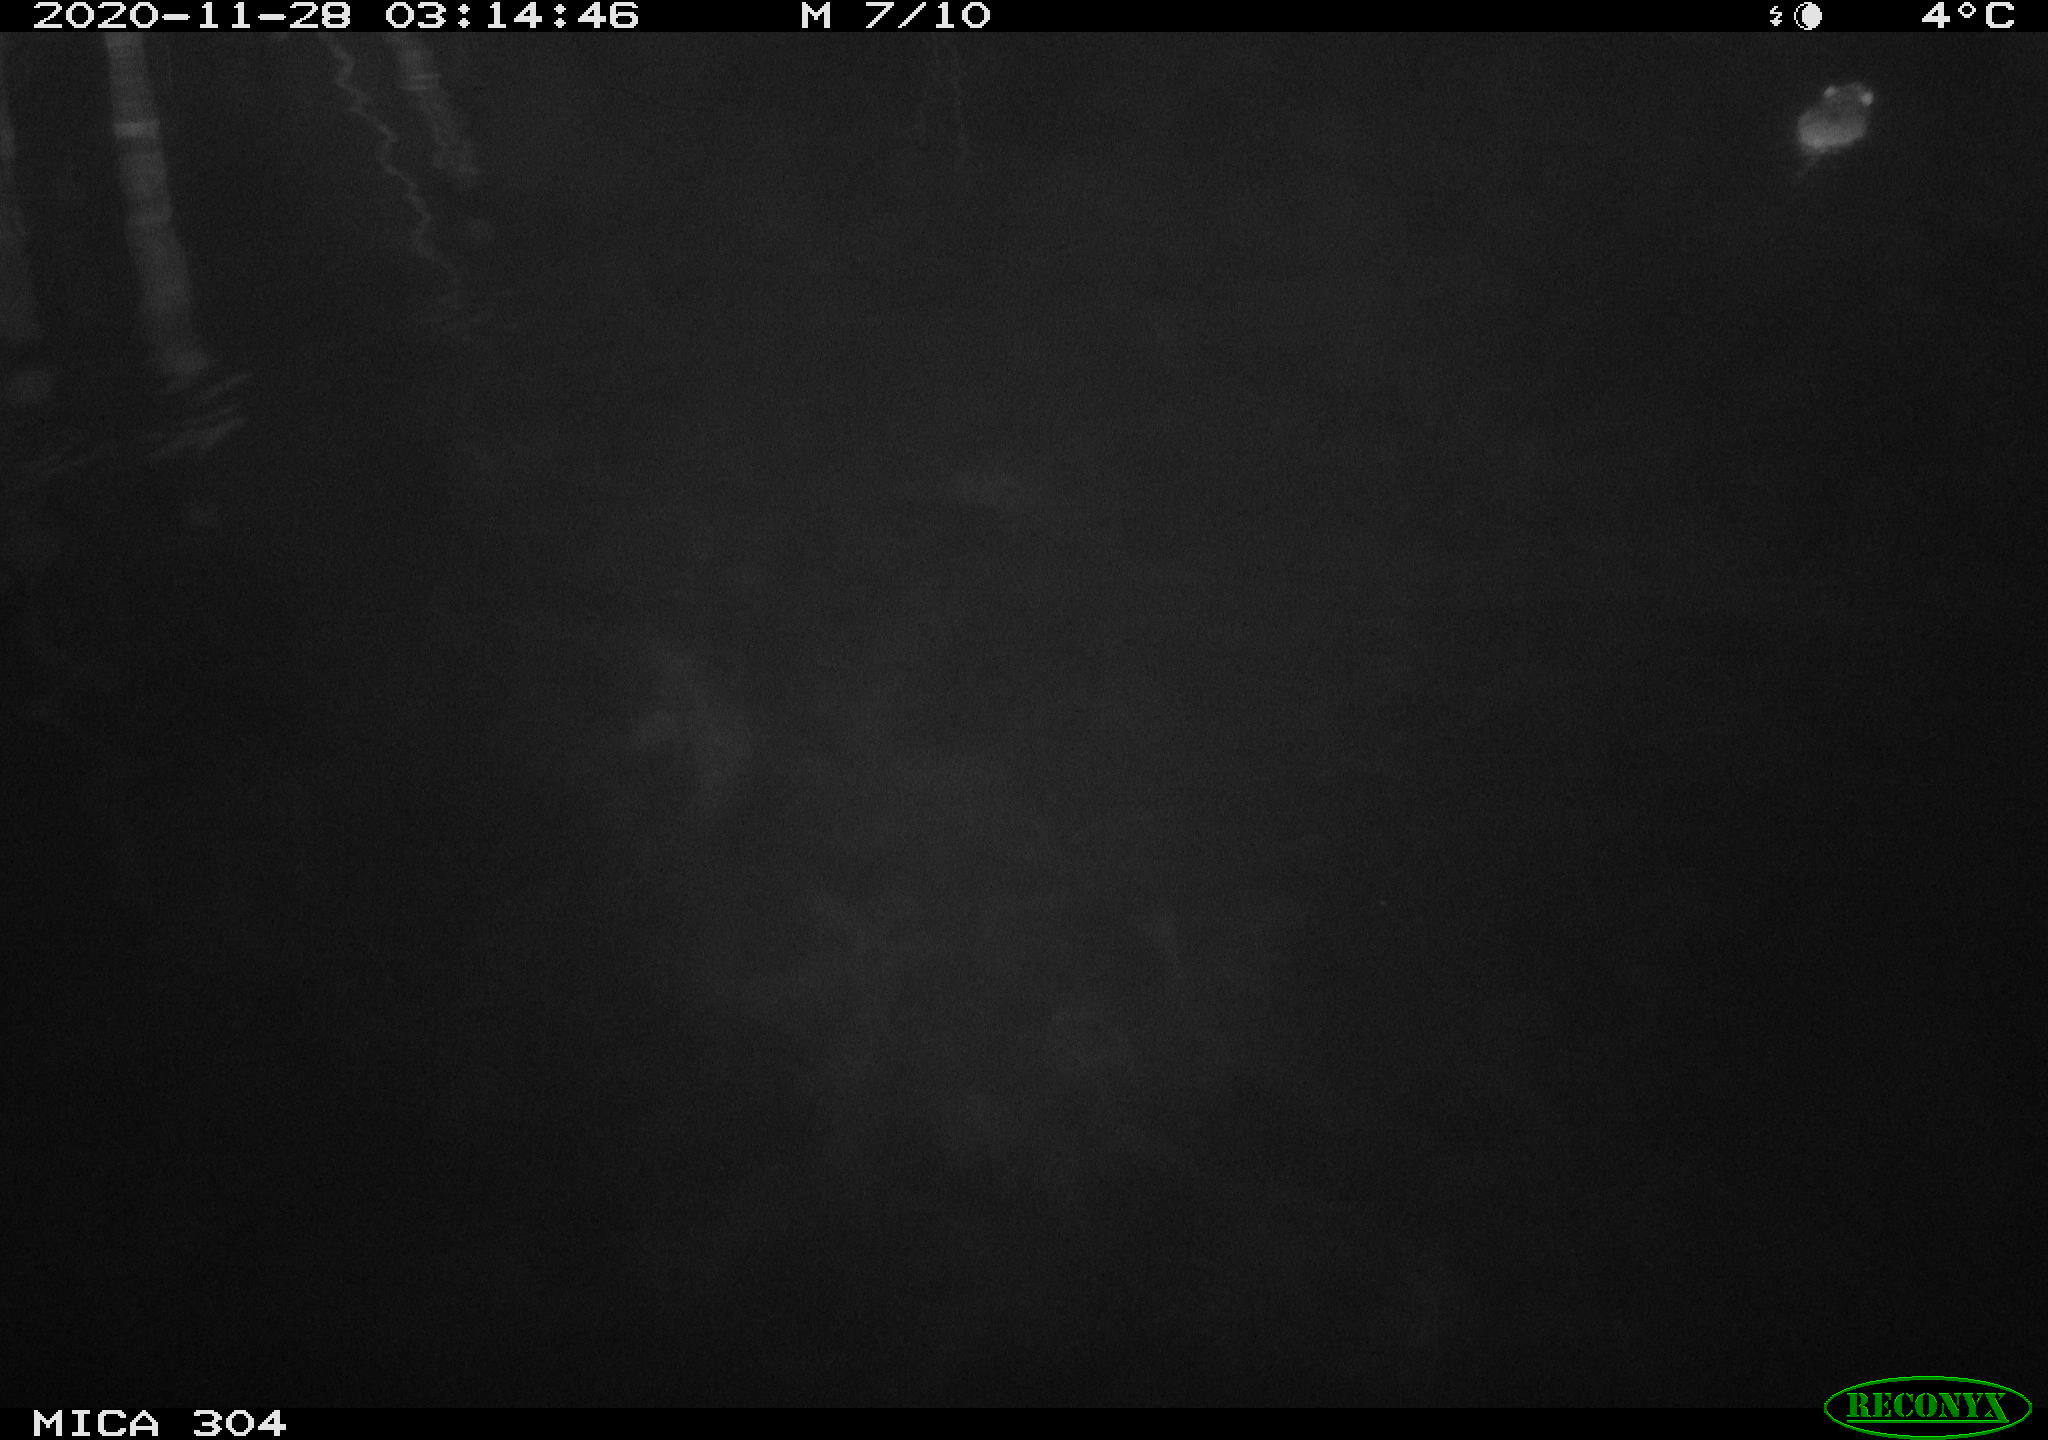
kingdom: Animalia
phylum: Chordata
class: Mammalia
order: Rodentia
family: Muridae
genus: Rattus
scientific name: Rattus norvegicus
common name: Brown rat
